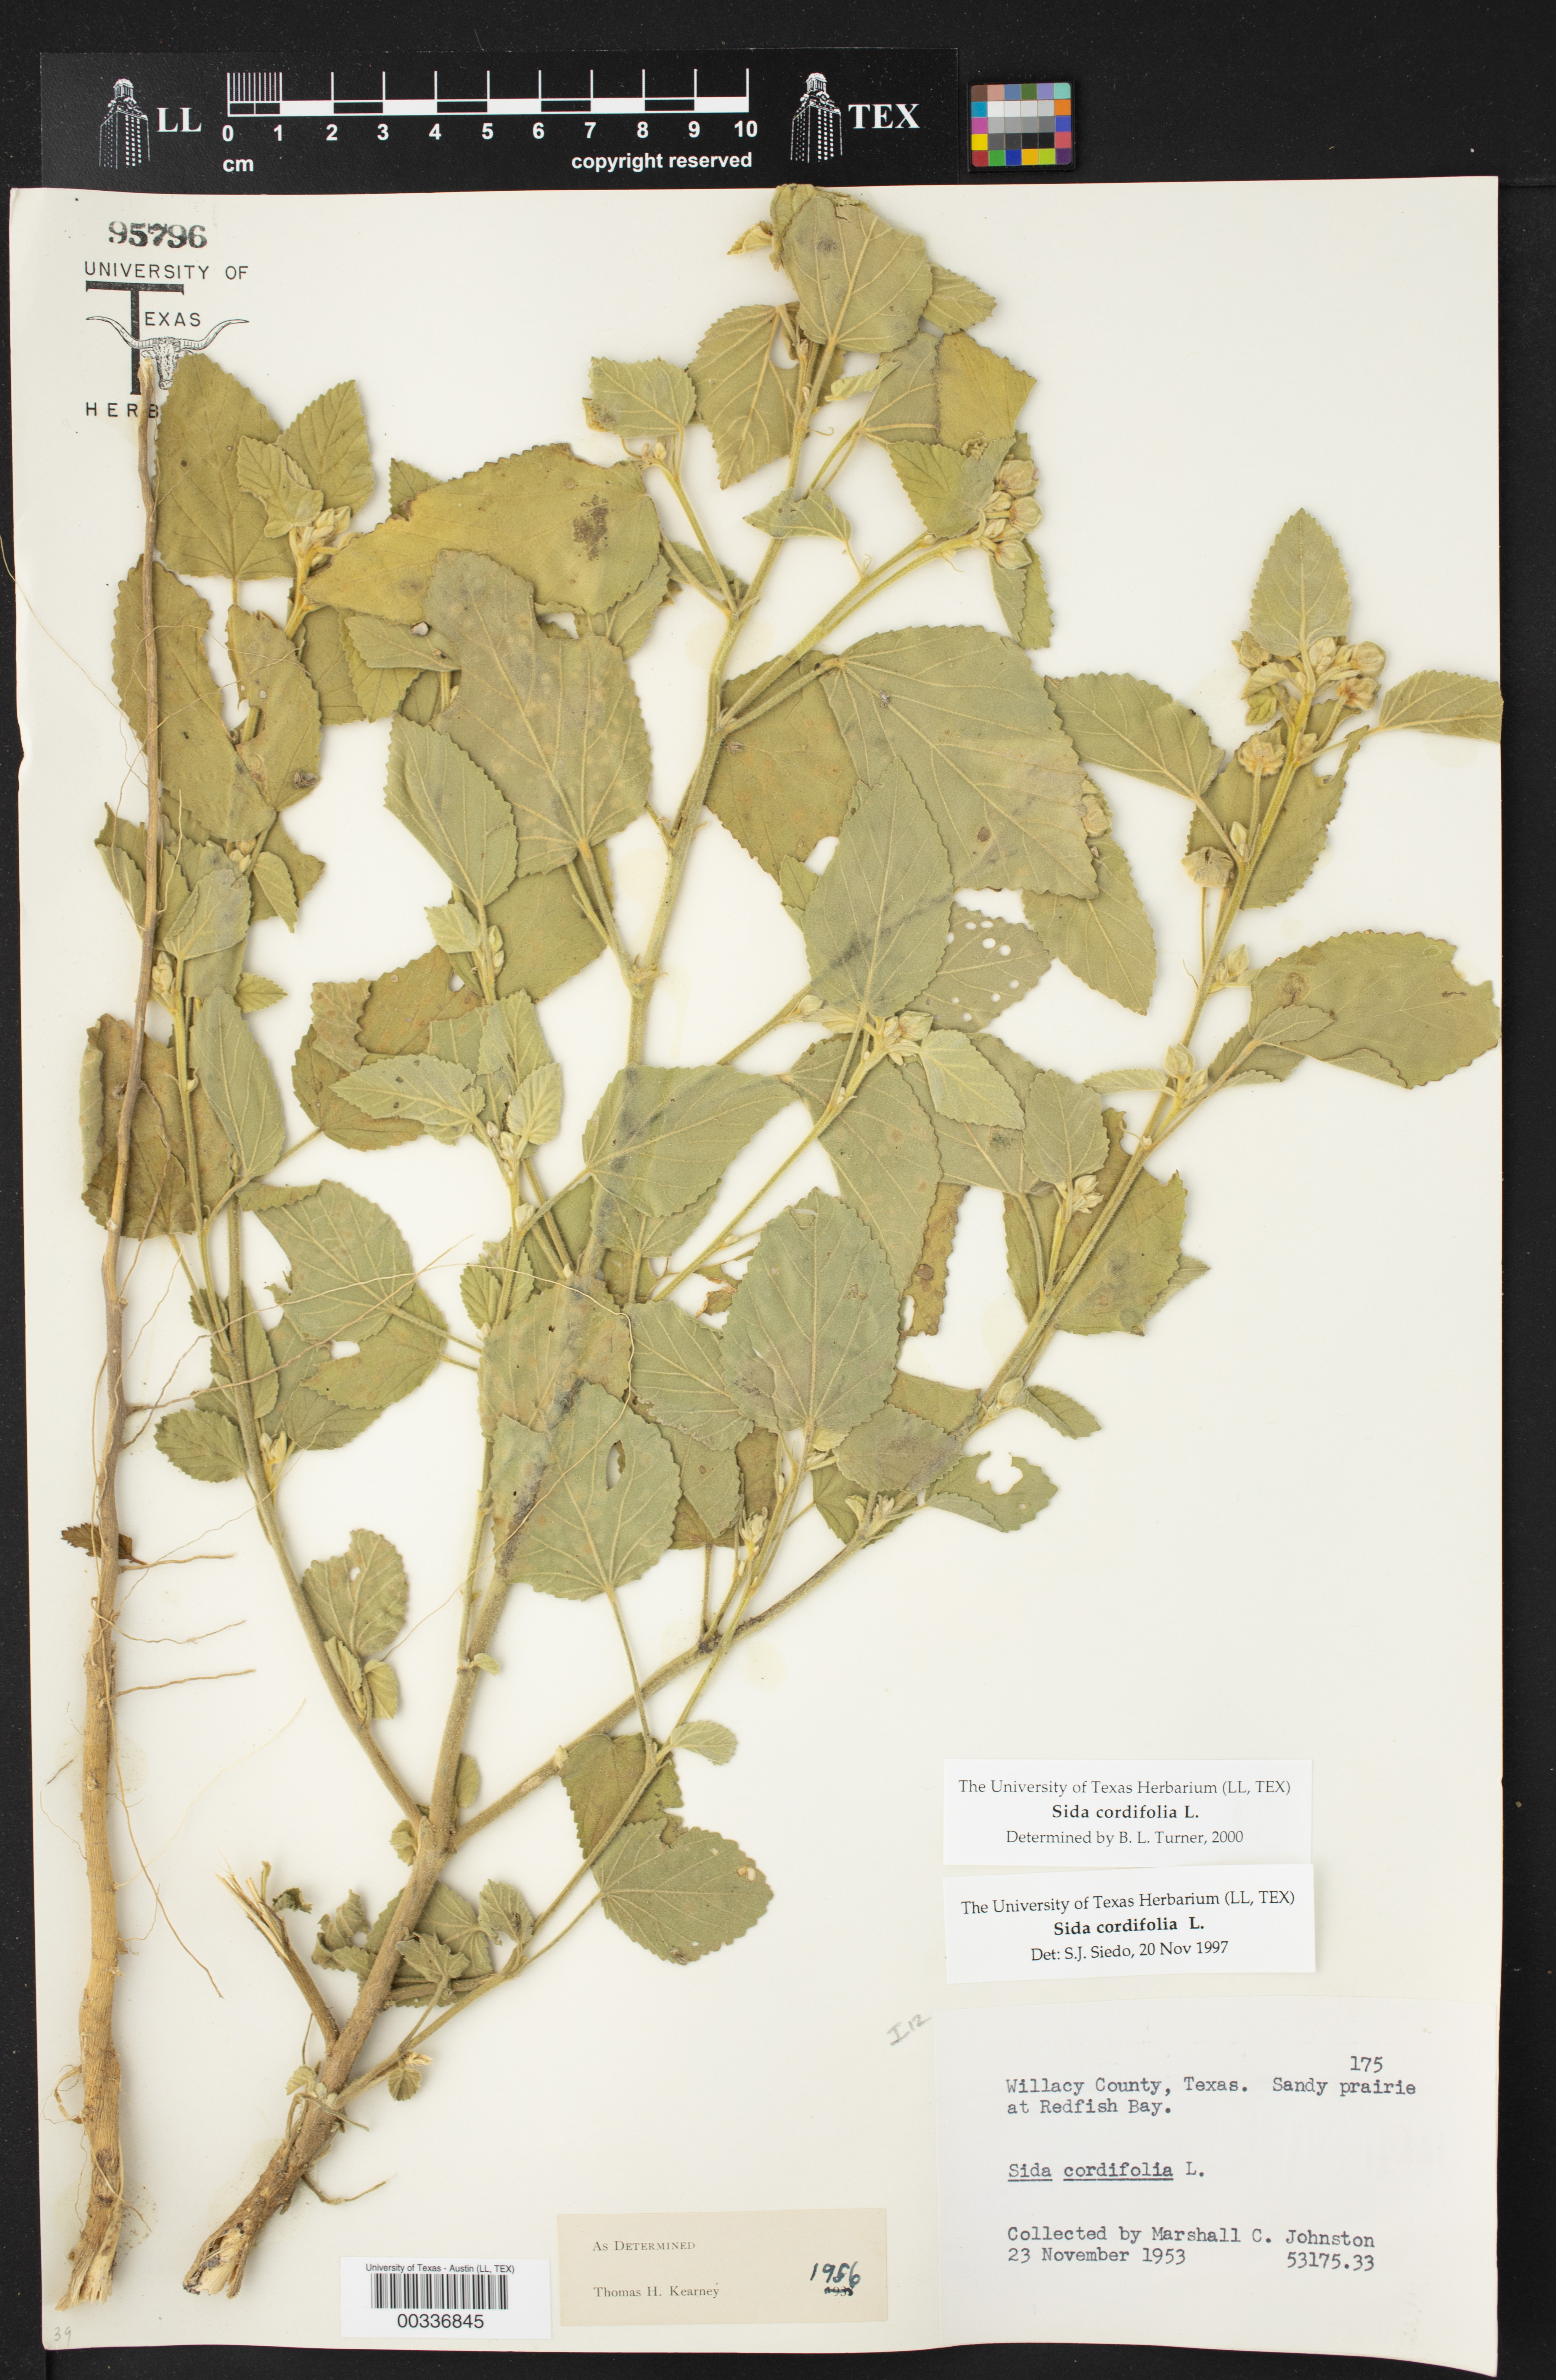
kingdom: Plantae
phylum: Tracheophyta
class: Magnoliopsida
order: Malvales
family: Malvaceae
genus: Sida
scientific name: Sida cordifolia
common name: Ilima
